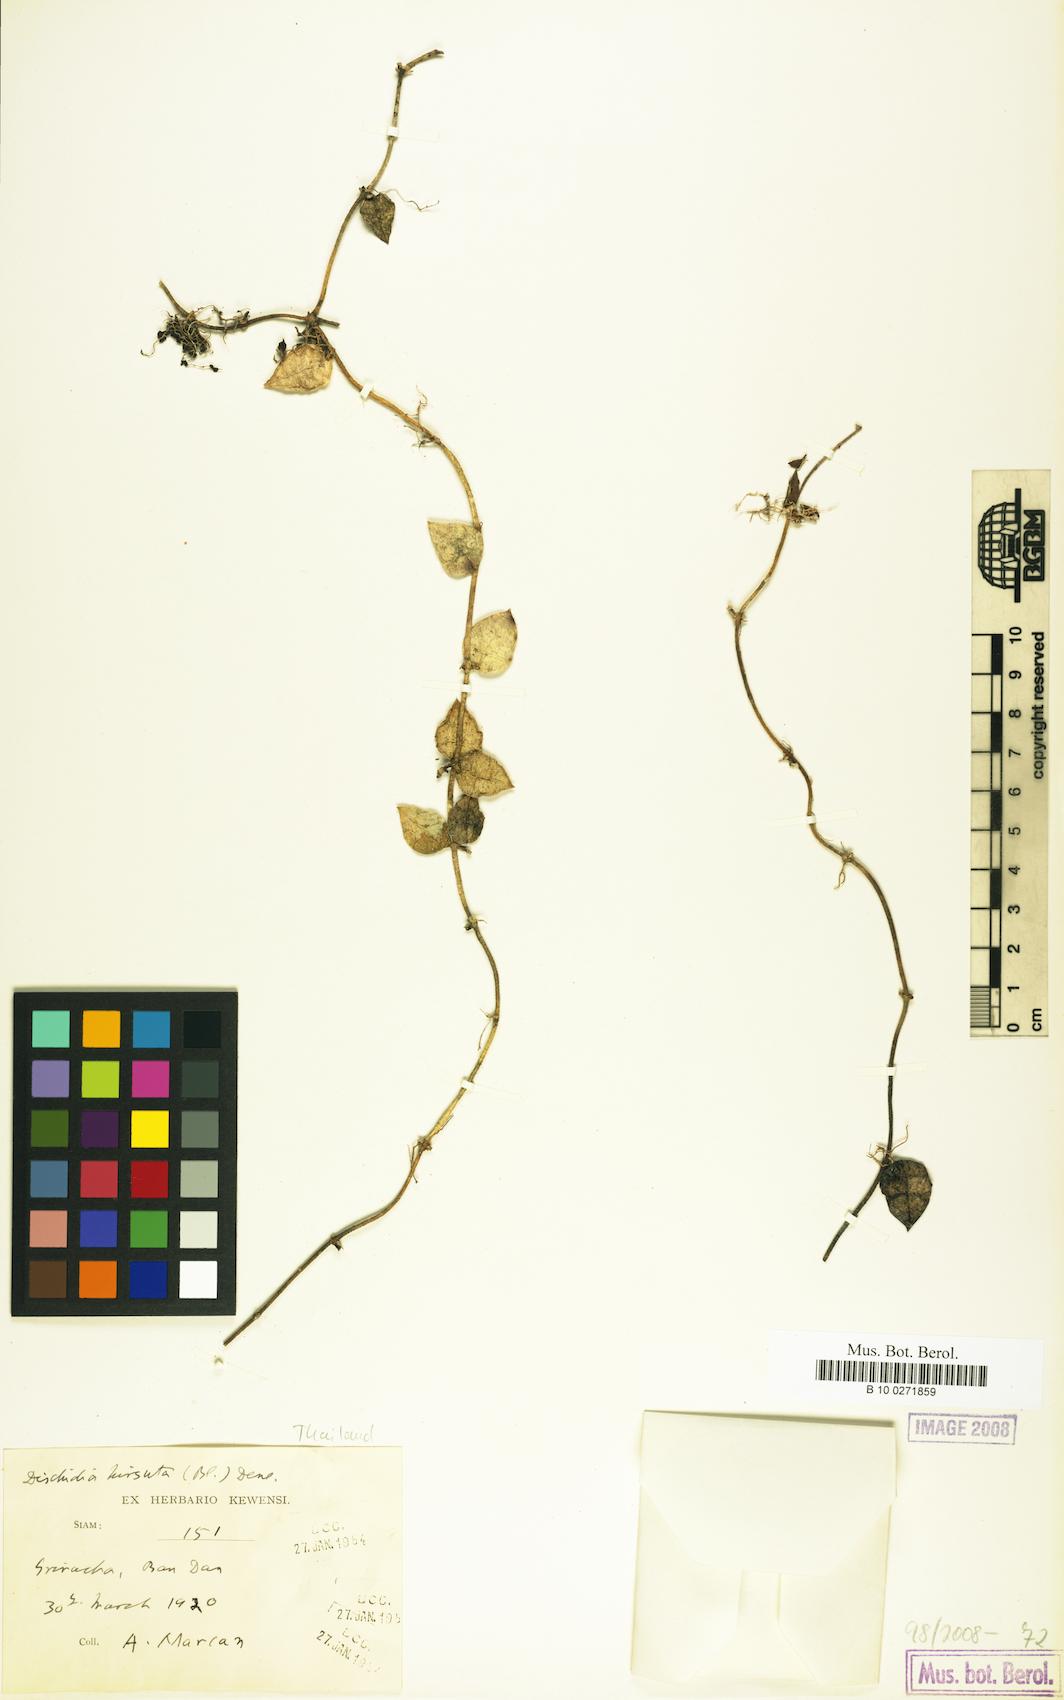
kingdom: Plantae
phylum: Tracheophyta
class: Magnoliopsida
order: Gentianales
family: Apocynaceae
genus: Dischidia
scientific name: Dischidia hirsuta
